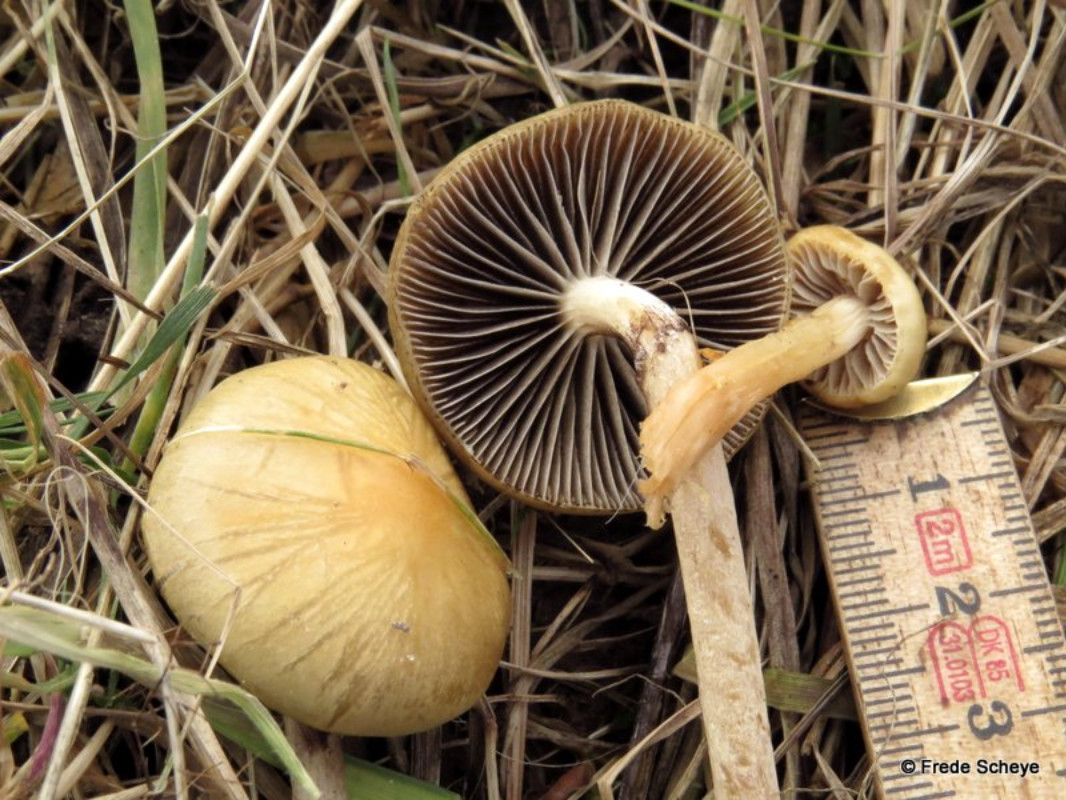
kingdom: Fungi
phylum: Basidiomycota
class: Agaricomycetes
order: Agaricales
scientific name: Agaricales
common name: champignonordenen
